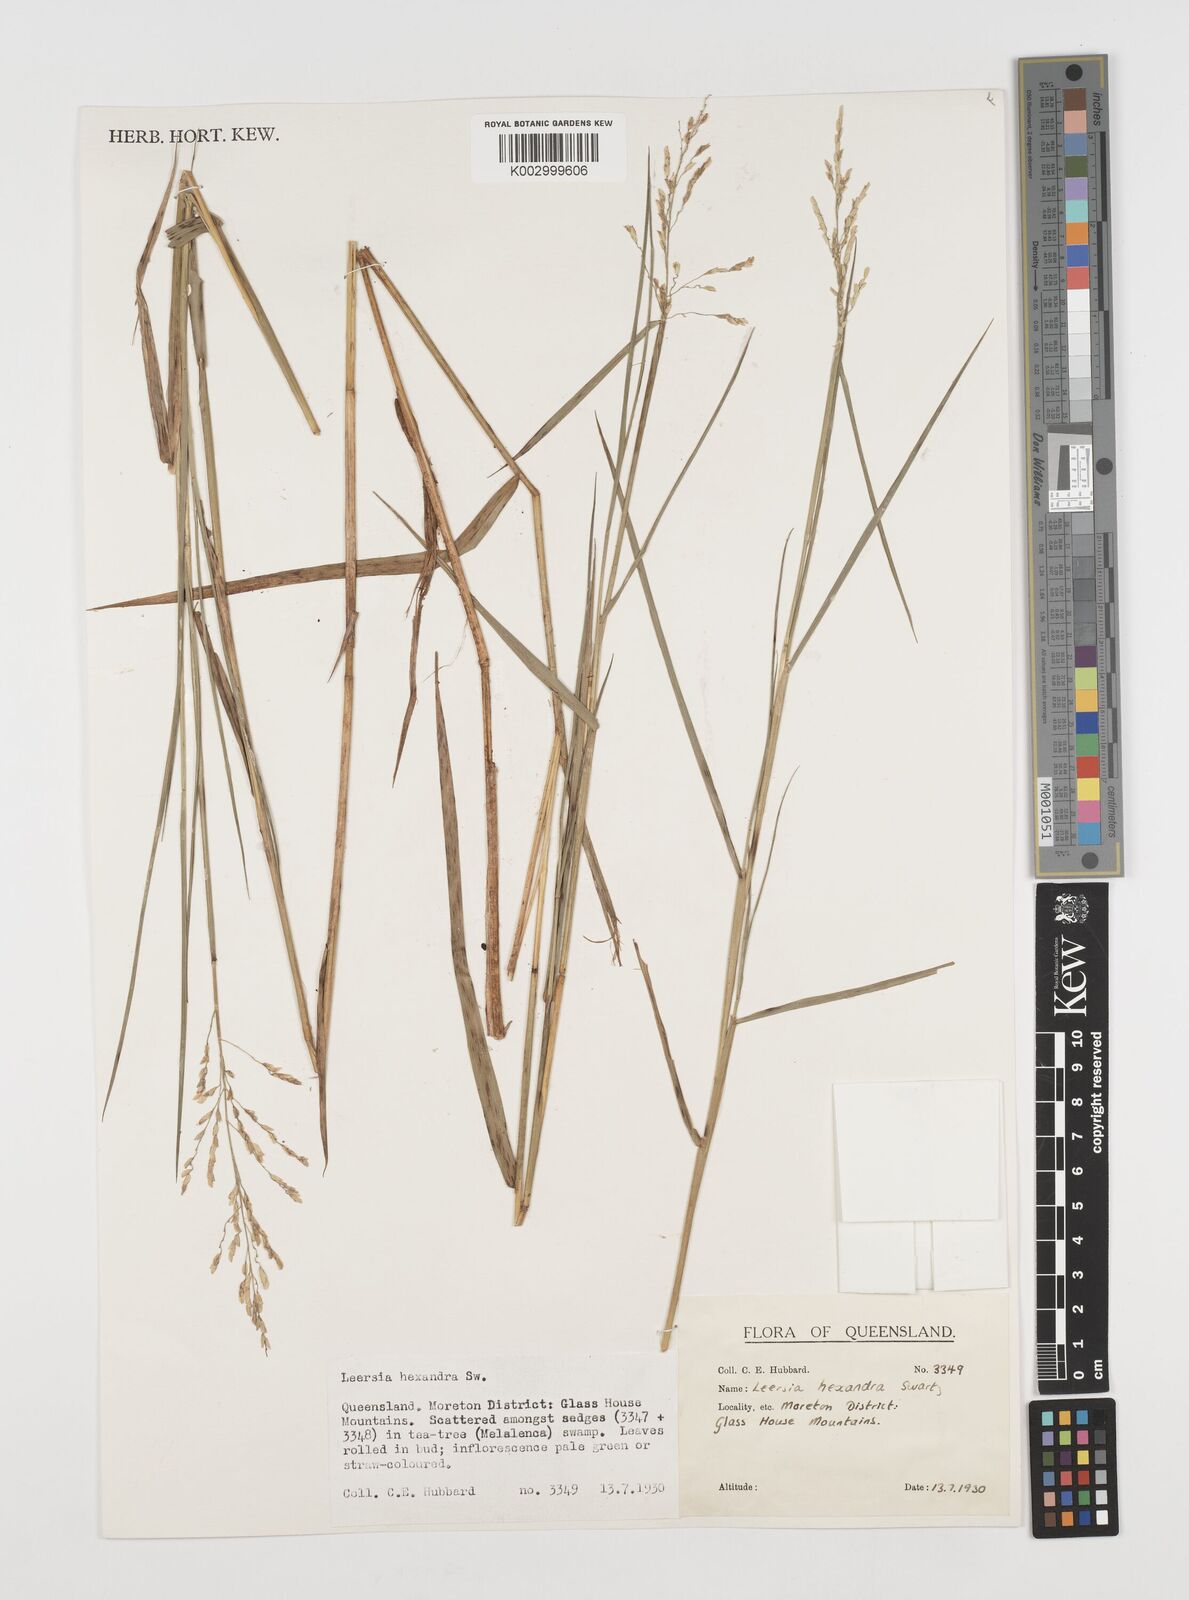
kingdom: Plantae
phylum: Tracheophyta
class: Liliopsida
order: Poales
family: Poaceae
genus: Leersia
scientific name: Leersia hexandra
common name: Southern cut grass
